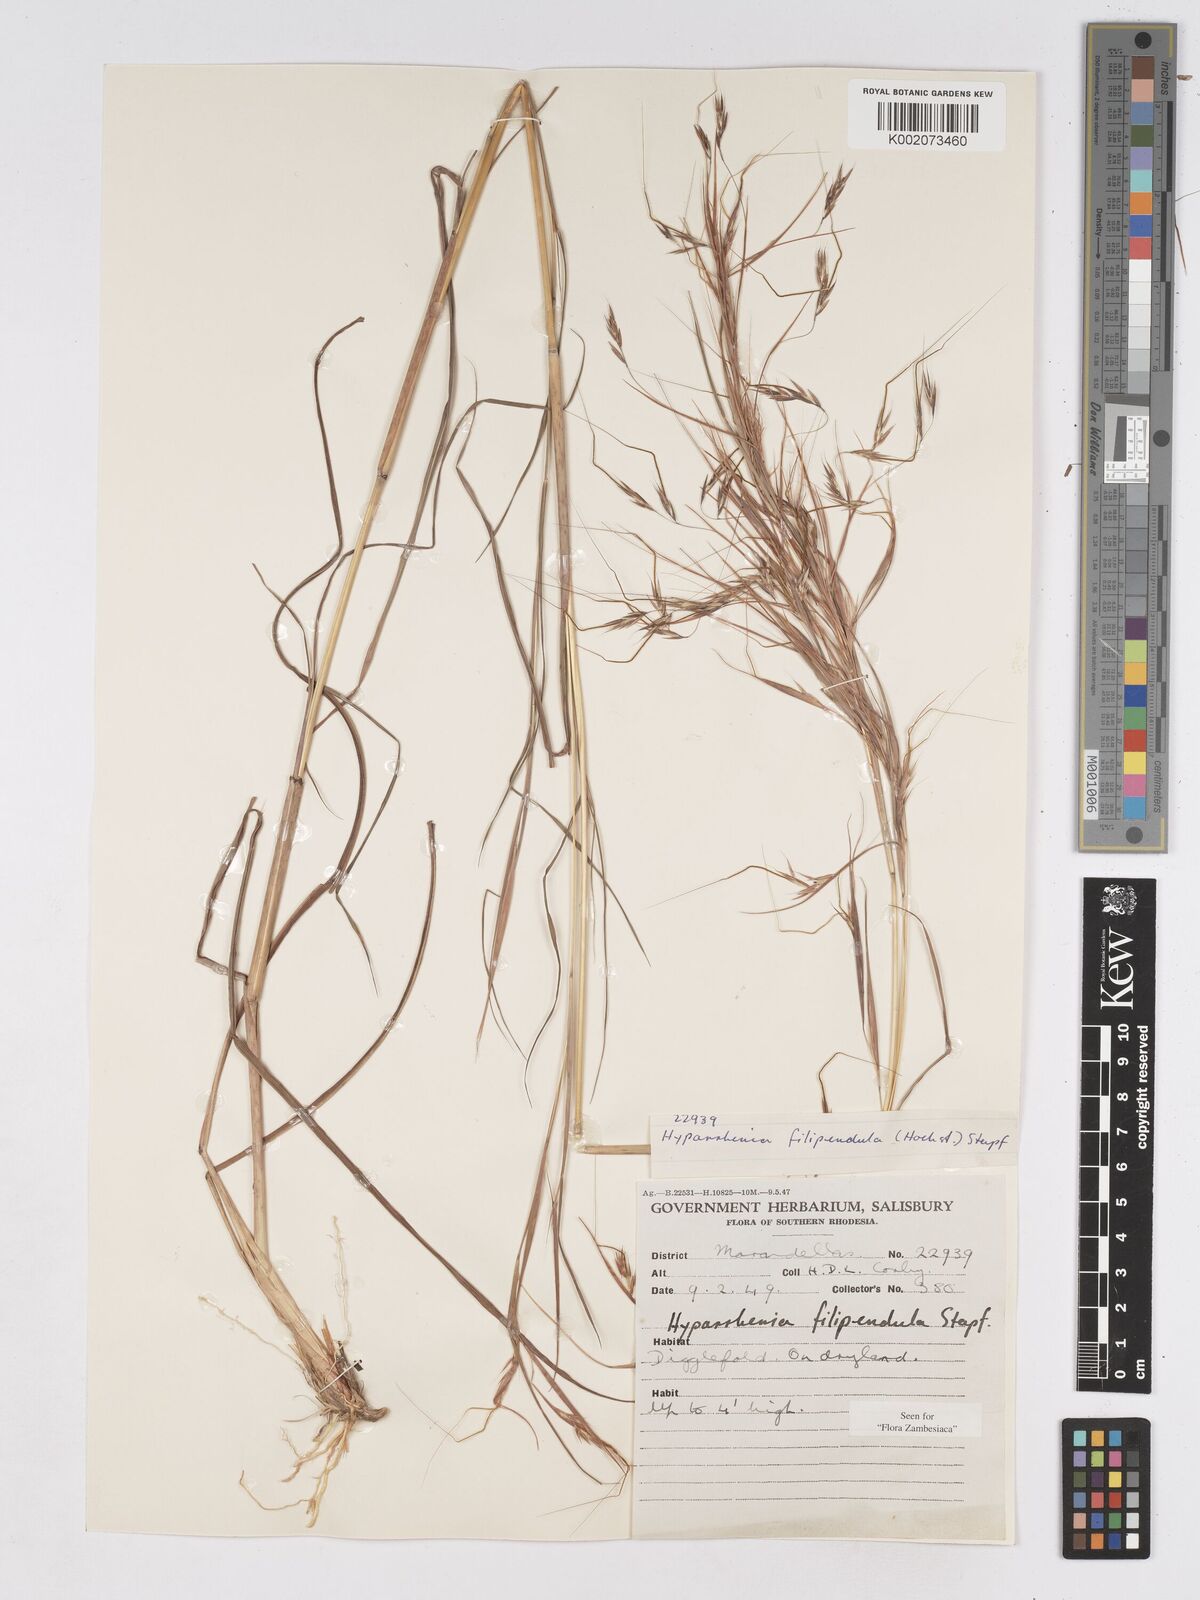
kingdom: Plantae
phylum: Tracheophyta
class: Liliopsida
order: Poales
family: Poaceae
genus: Hyparrhenia
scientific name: Hyparrhenia filipendula
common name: Tambookie grass
